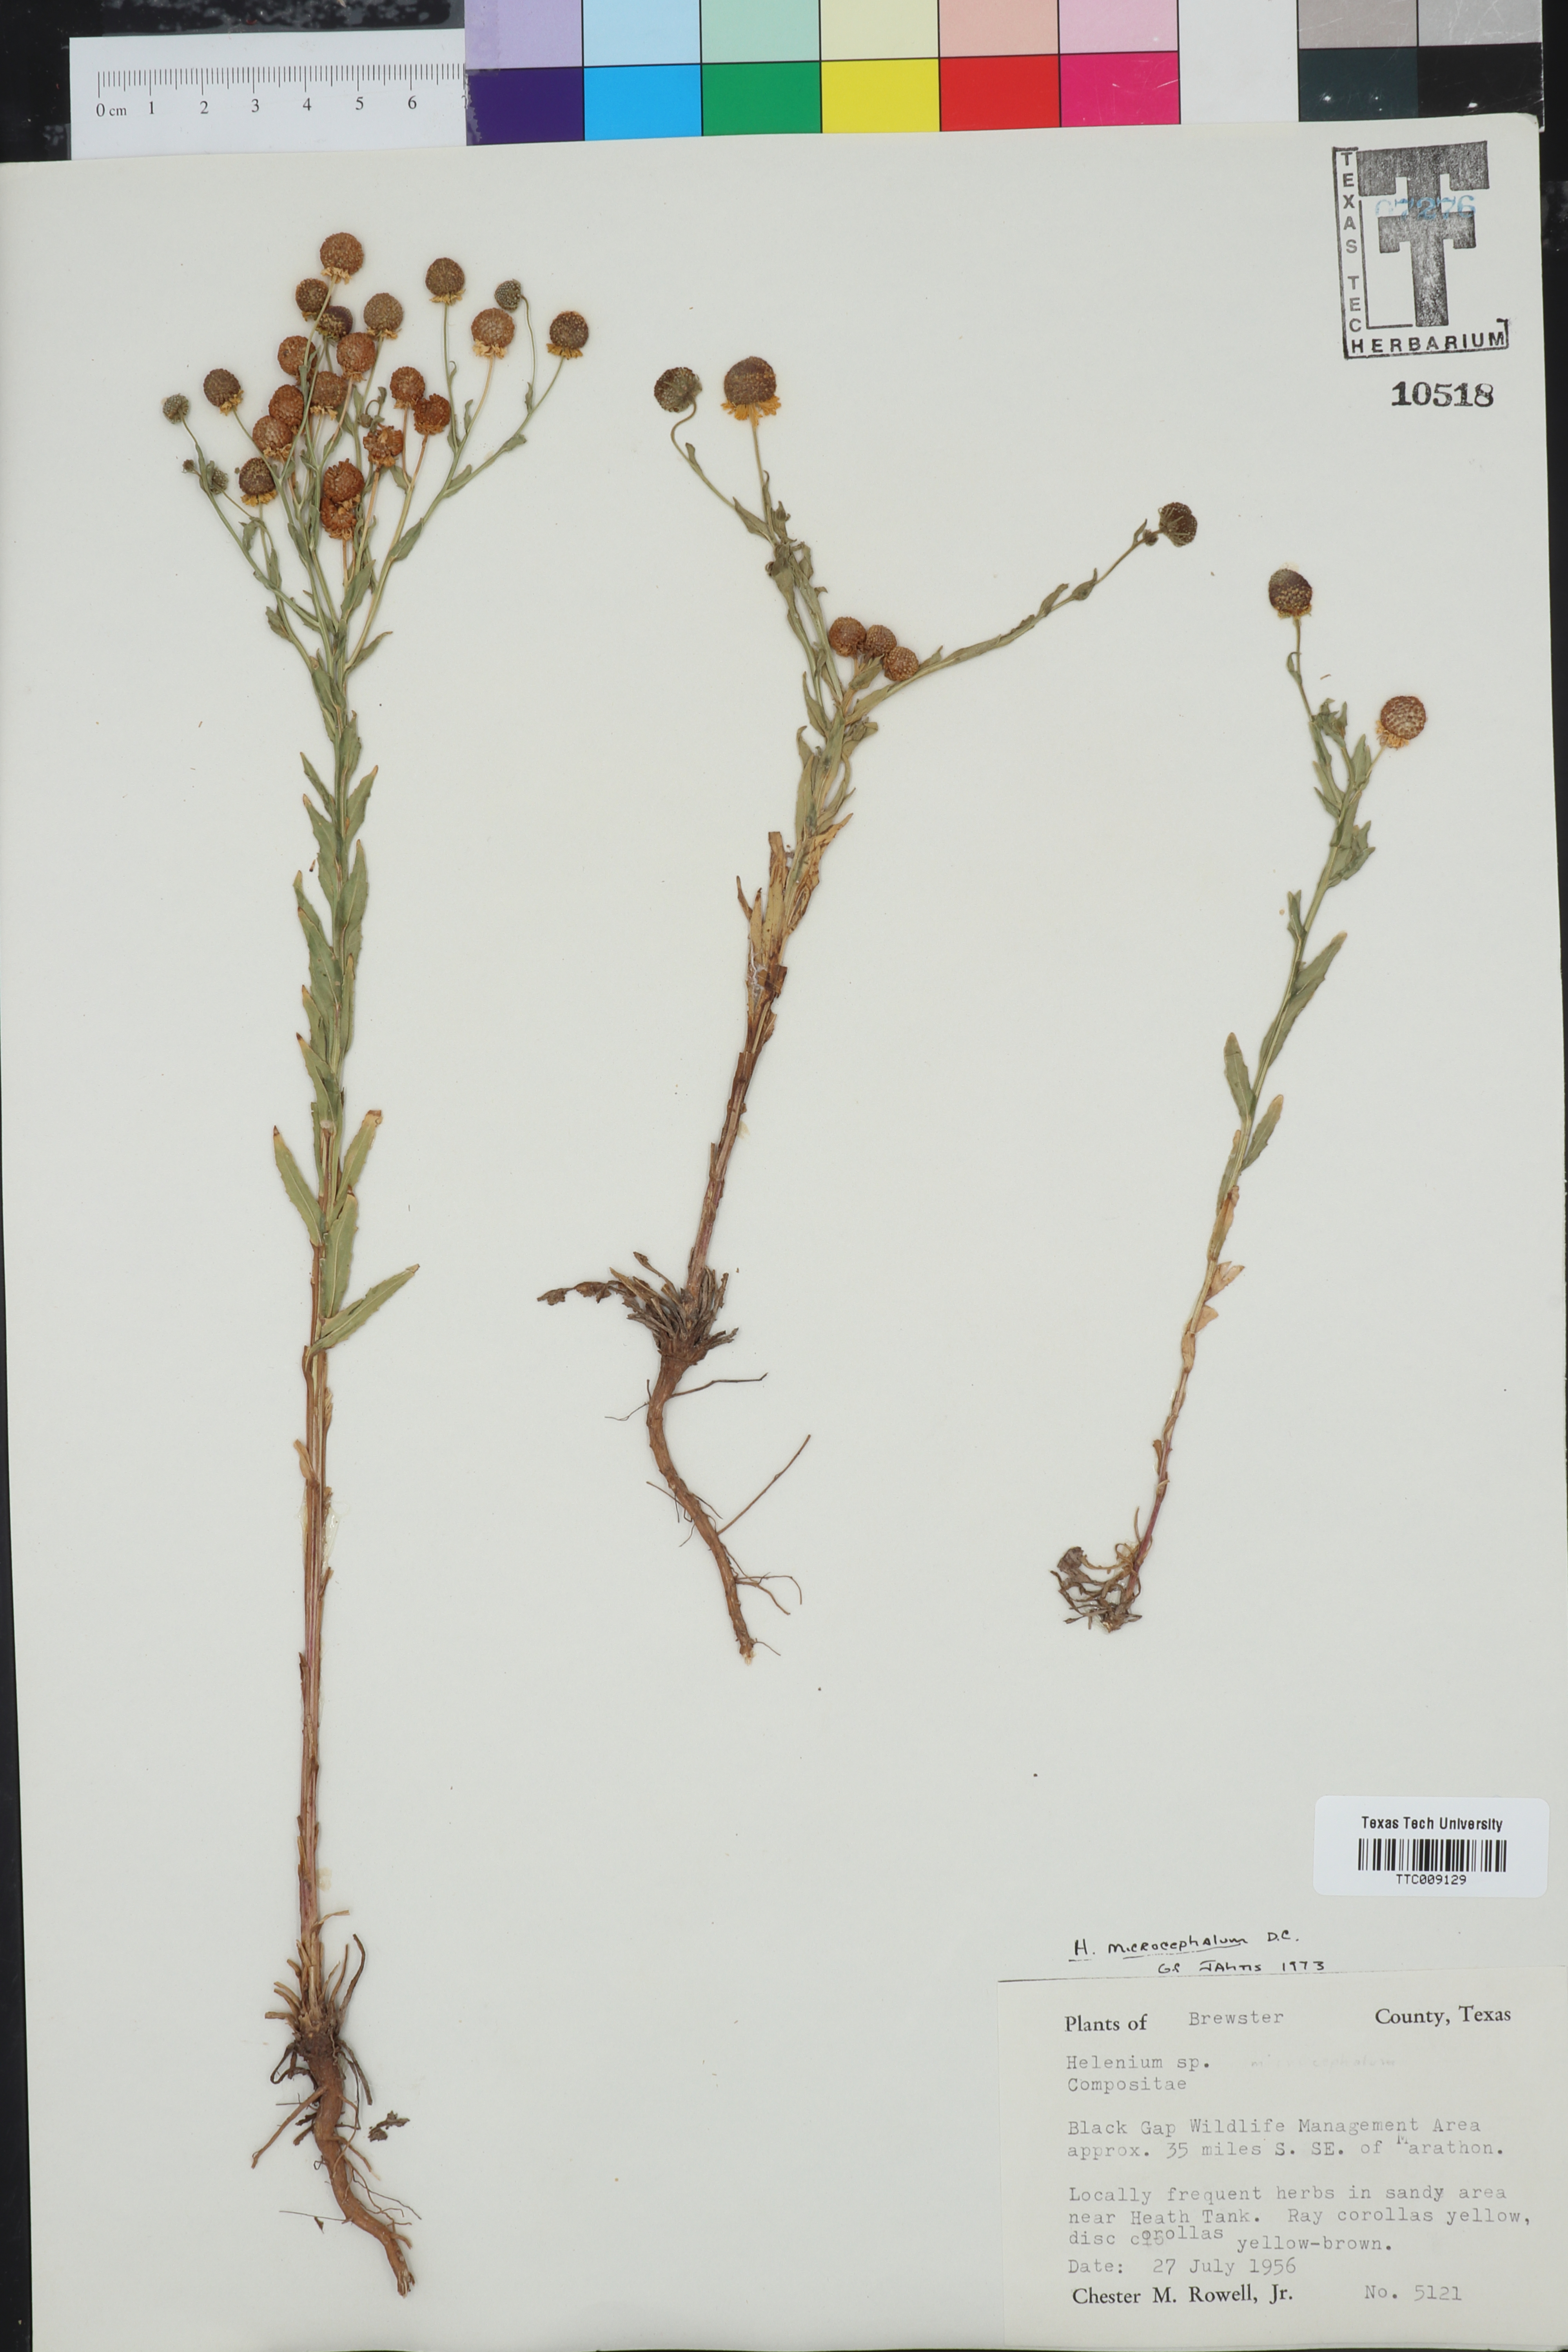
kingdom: Plantae
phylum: Tracheophyta
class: Magnoliopsida
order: Asterales
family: Asteraceae
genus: Helenium
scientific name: Helenium microcephalum
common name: Smallhead sneezeweed
